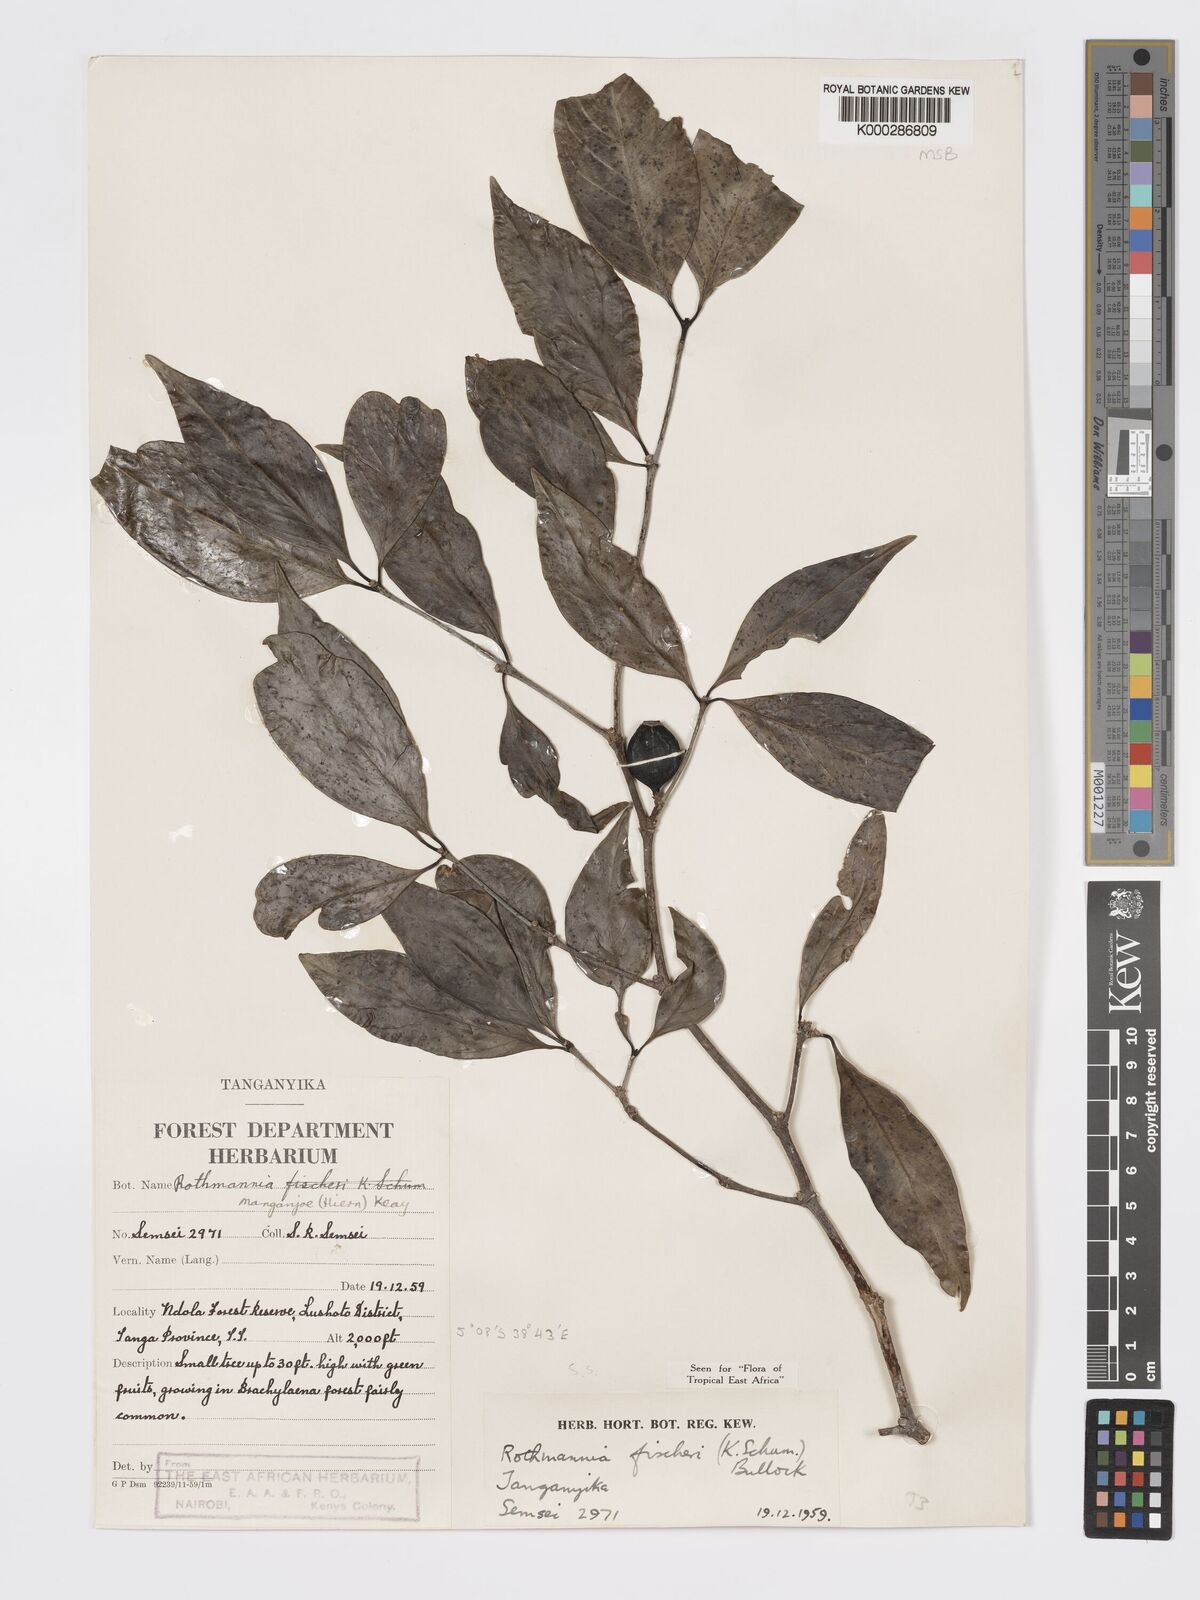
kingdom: Plantae
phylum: Tracheophyta
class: Magnoliopsida
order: Gentianales
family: Rubiaceae
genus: Rothmannia
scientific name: Rothmannia ravae
